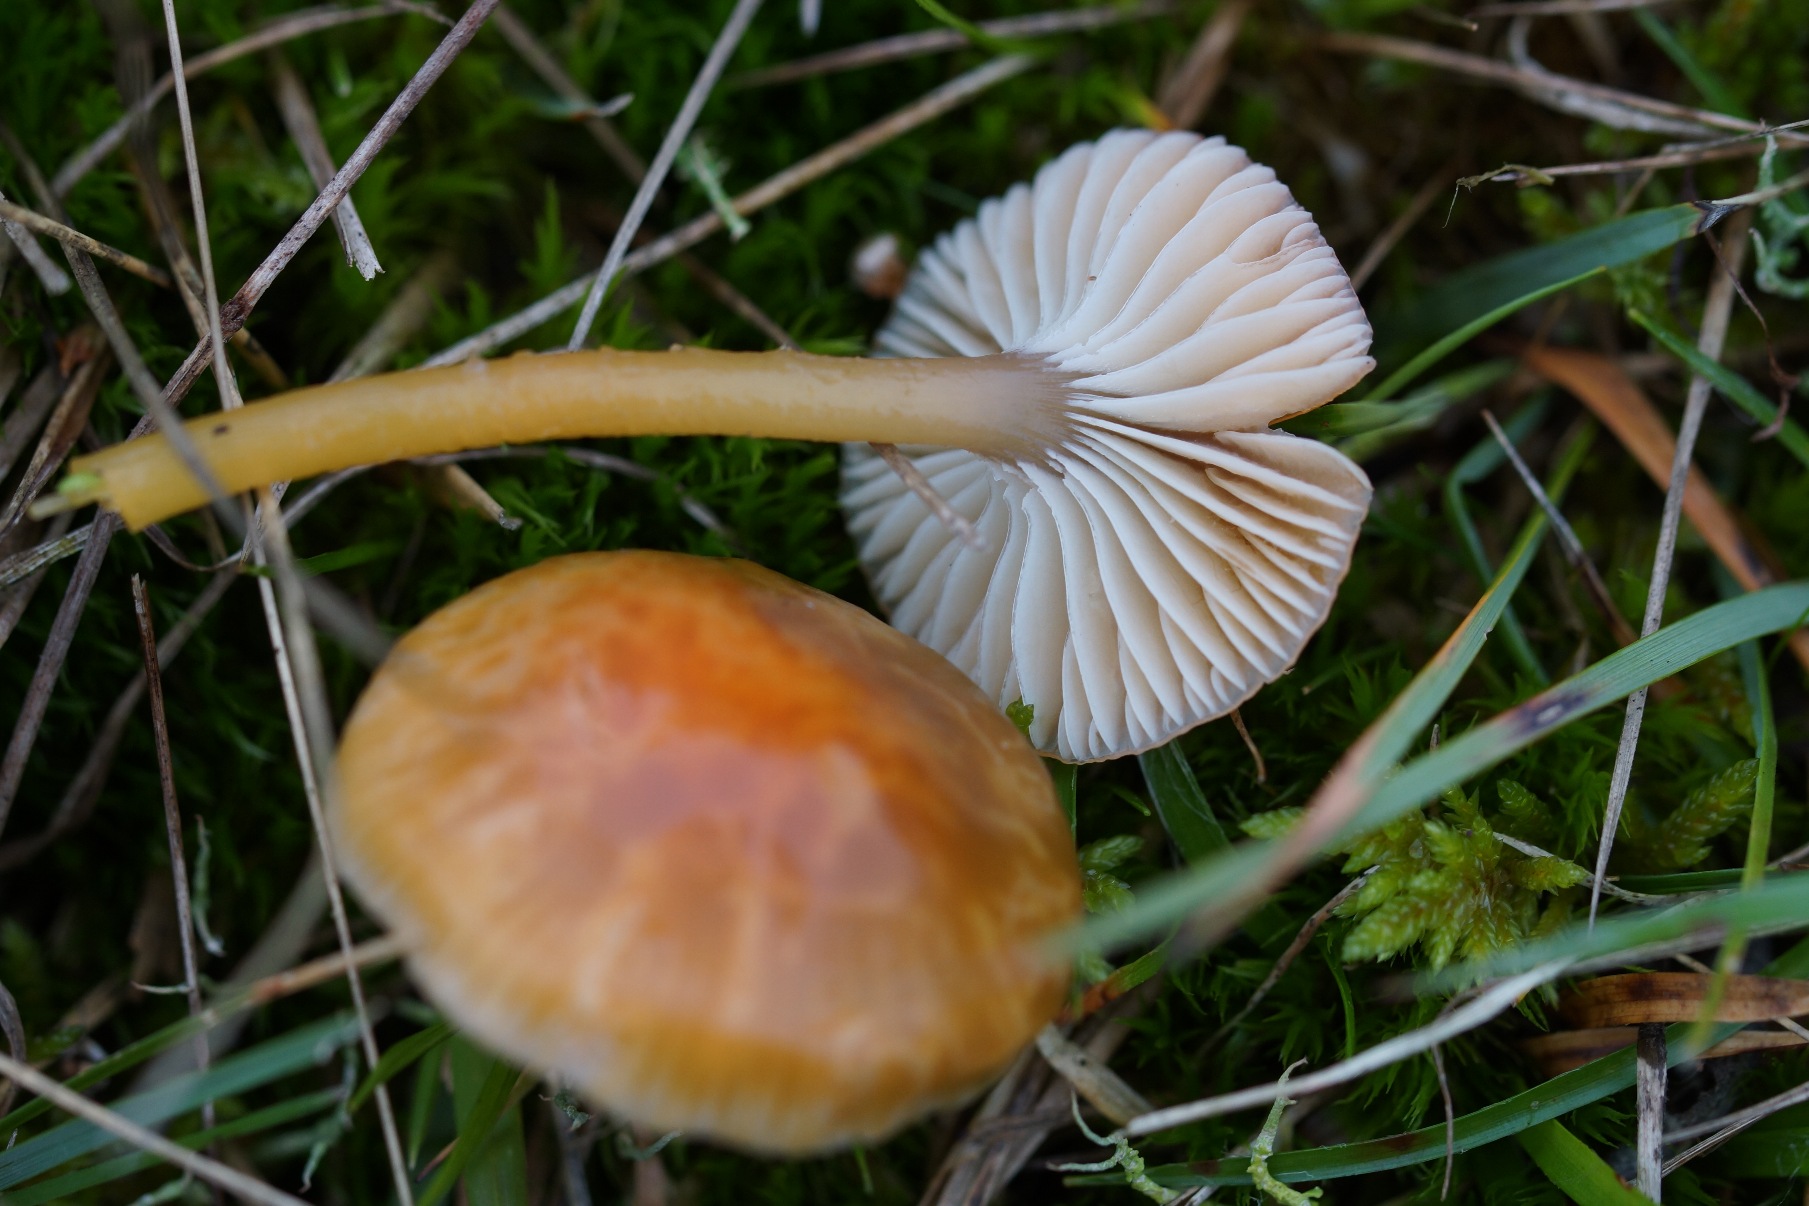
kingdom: Fungi
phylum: Basidiomycota
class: Agaricomycetes
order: Agaricales
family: Hygrophoraceae
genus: Gliophorus
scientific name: Gliophorus laetus
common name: Brusk-vokshat
